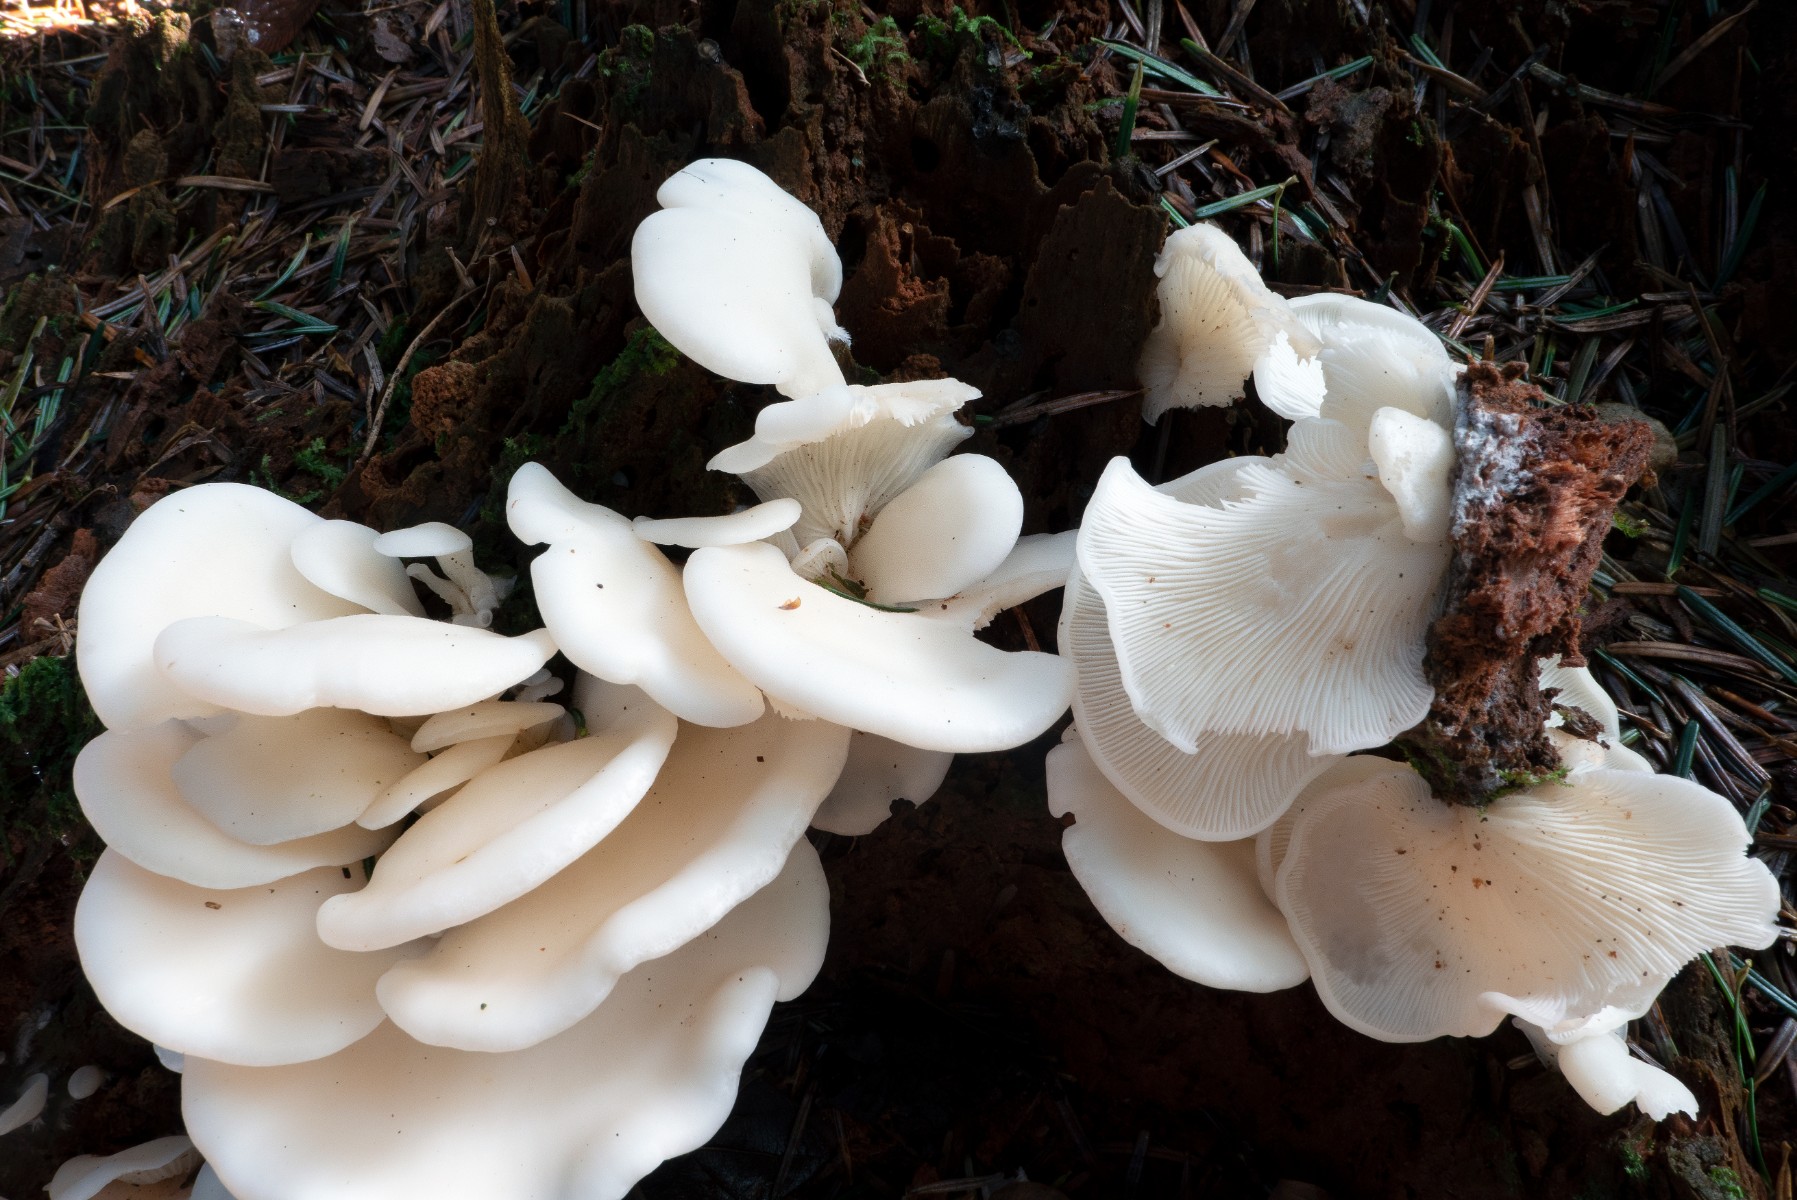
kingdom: Fungi
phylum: Basidiomycota
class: Agaricomycetes
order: Agaricales
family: Marasmiaceae
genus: Pleurocybella
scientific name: Pleurocybella porrigens
